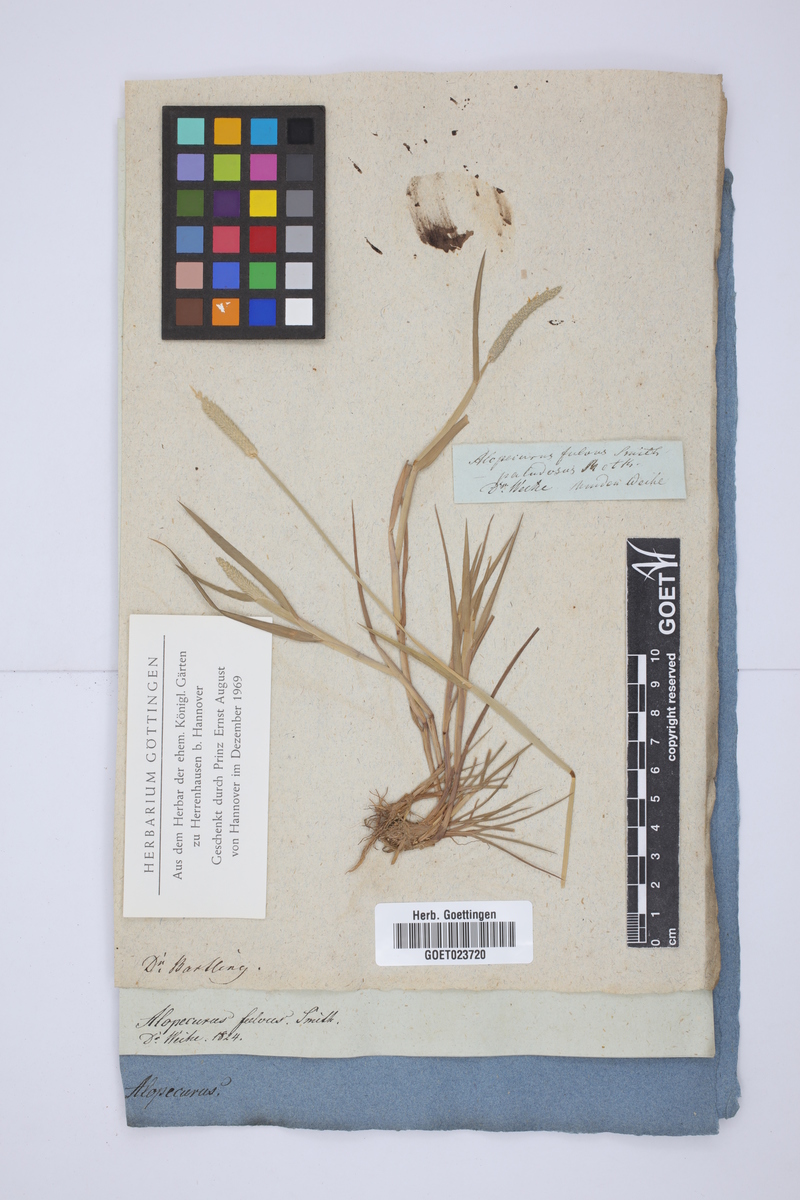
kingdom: Plantae
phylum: Tracheophyta
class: Liliopsida
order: Poales
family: Poaceae
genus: Alopecurus
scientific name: Alopecurus aequalis
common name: Orange foxtail
